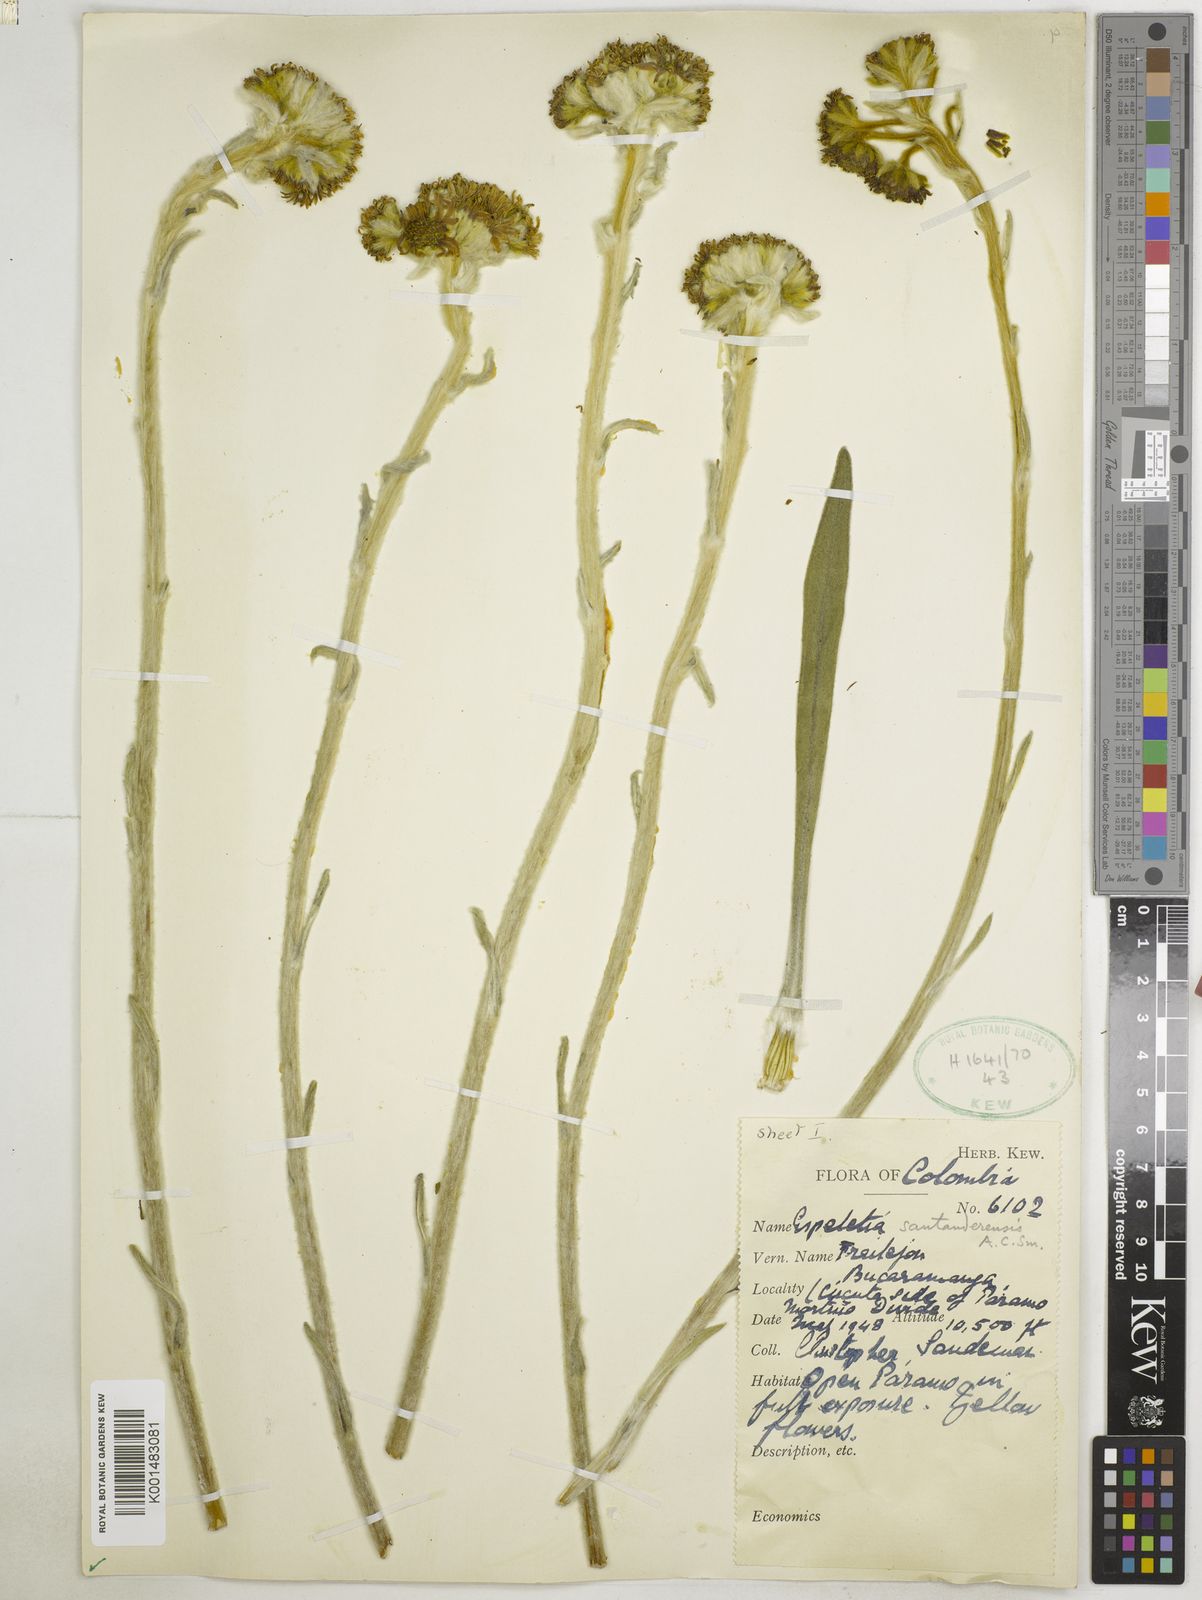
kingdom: Plantae
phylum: Tracheophyta
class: Magnoliopsida
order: Asterales
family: Asteraceae
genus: Espeletia
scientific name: Espeletia santanderensis
